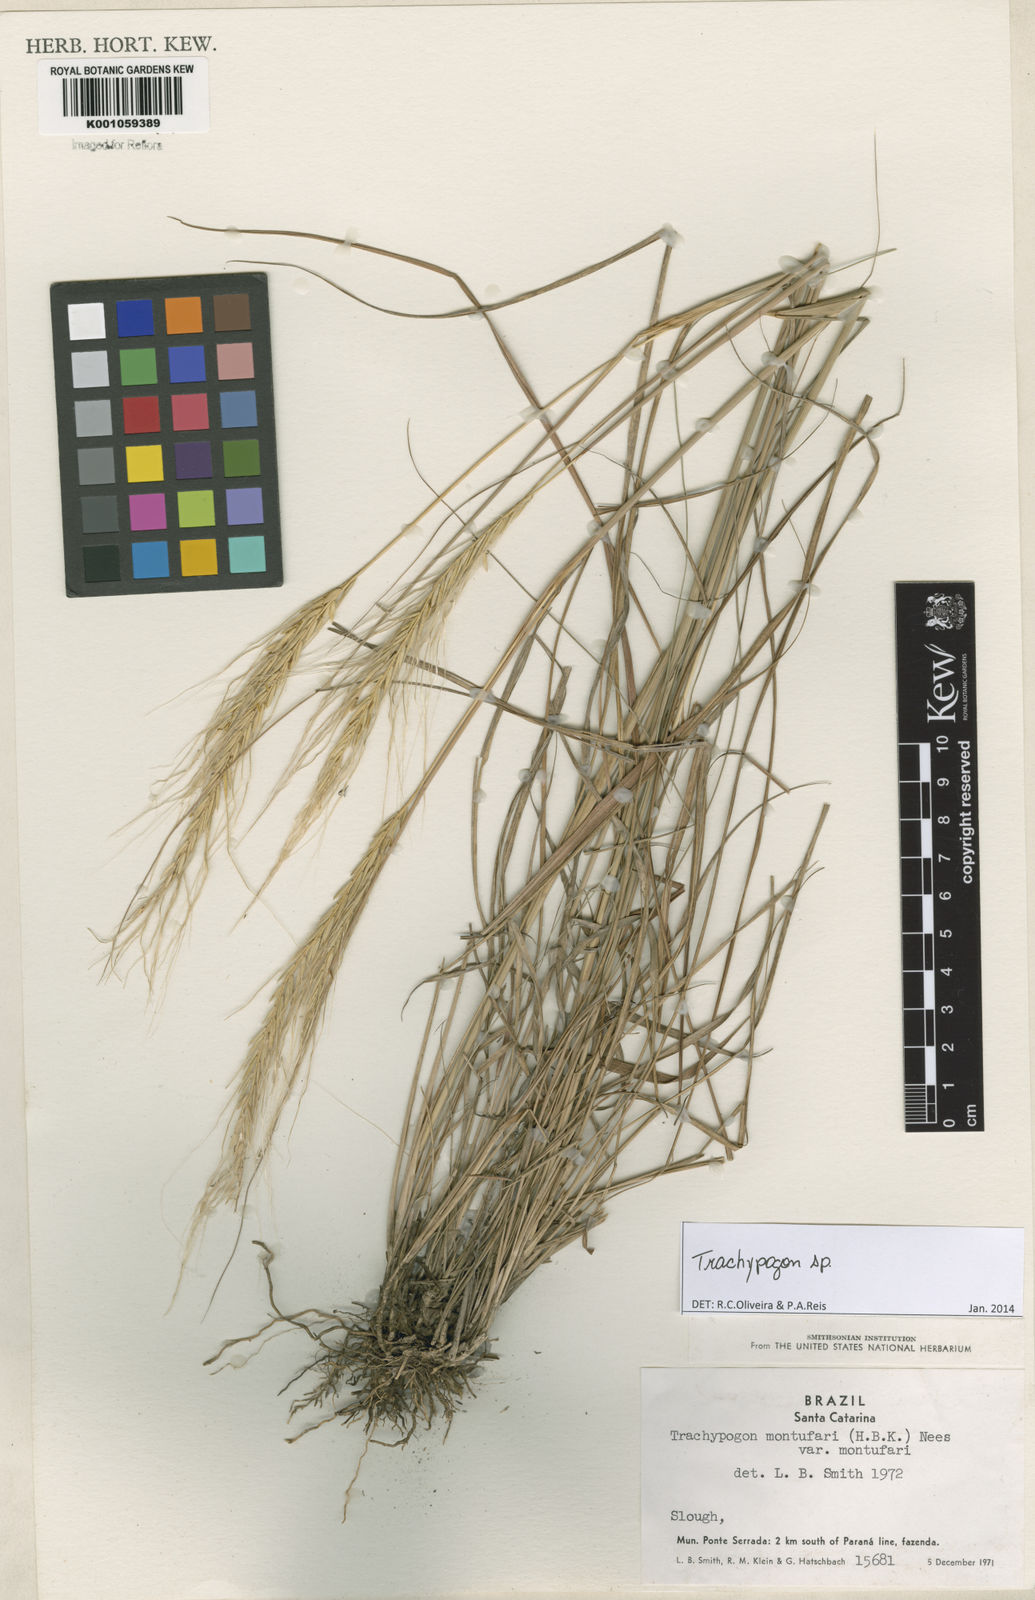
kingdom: Plantae
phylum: Tracheophyta
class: Liliopsida
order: Poales
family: Poaceae
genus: Trachypogon
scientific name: Trachypogon
